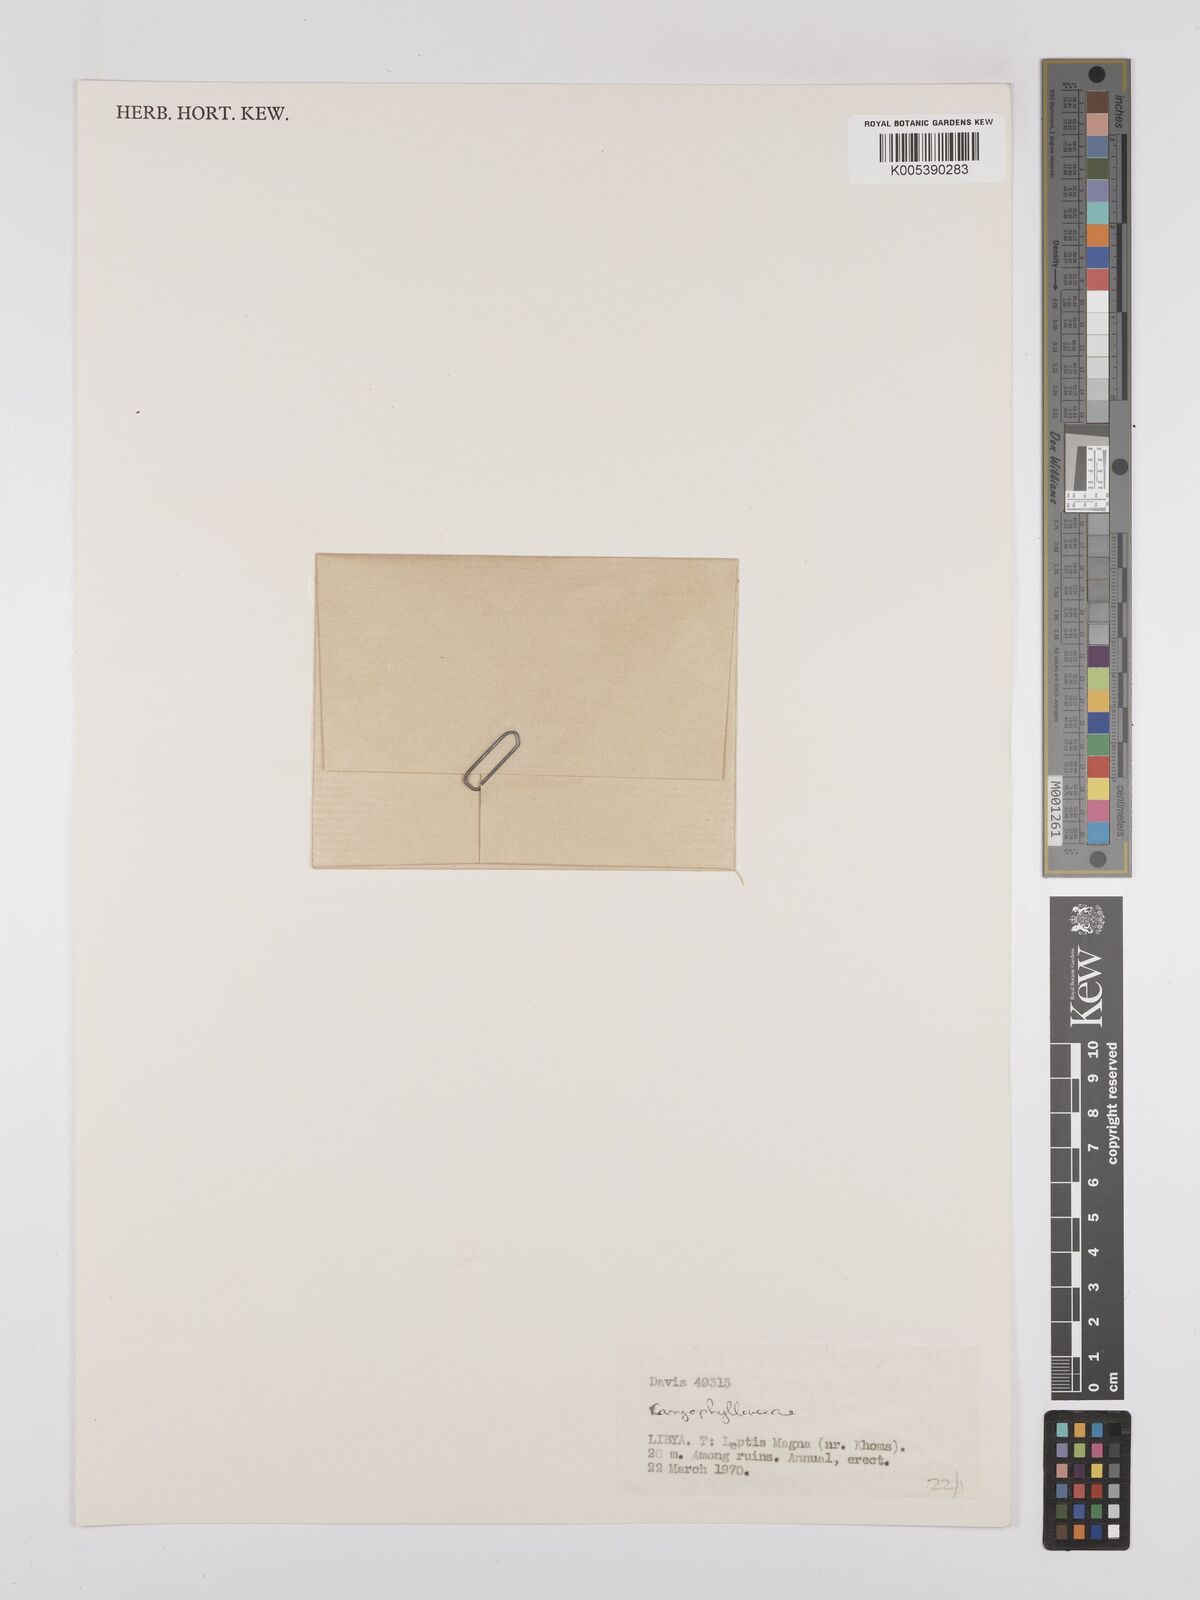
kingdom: Plantae
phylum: Tracheophyta
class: Magnoliopsida
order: Caryophyllales
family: Caryophyllaceae
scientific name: Caryophyllaceae
